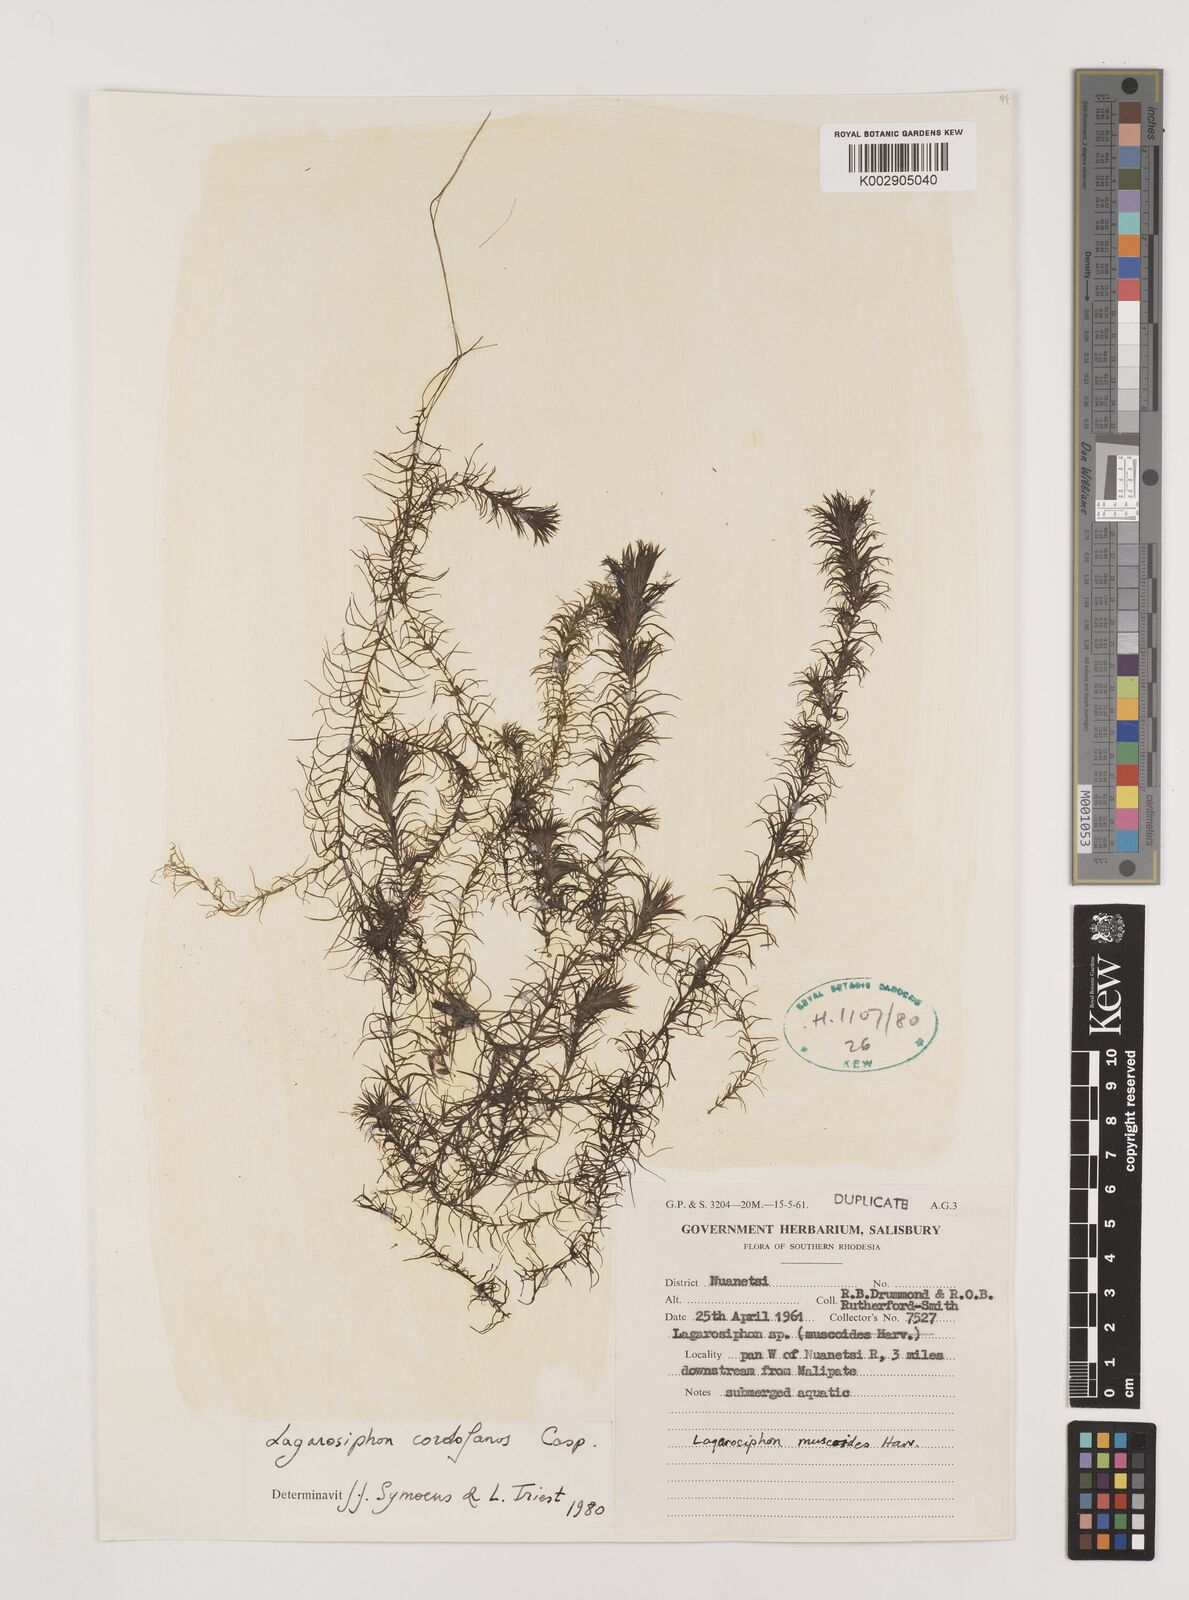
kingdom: Plantae
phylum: Tracheophyta
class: Liliopsida
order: Alismatales
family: Hydrocharitaceae
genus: Lagarosiphon
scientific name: Lagarosiphon cordofanus
